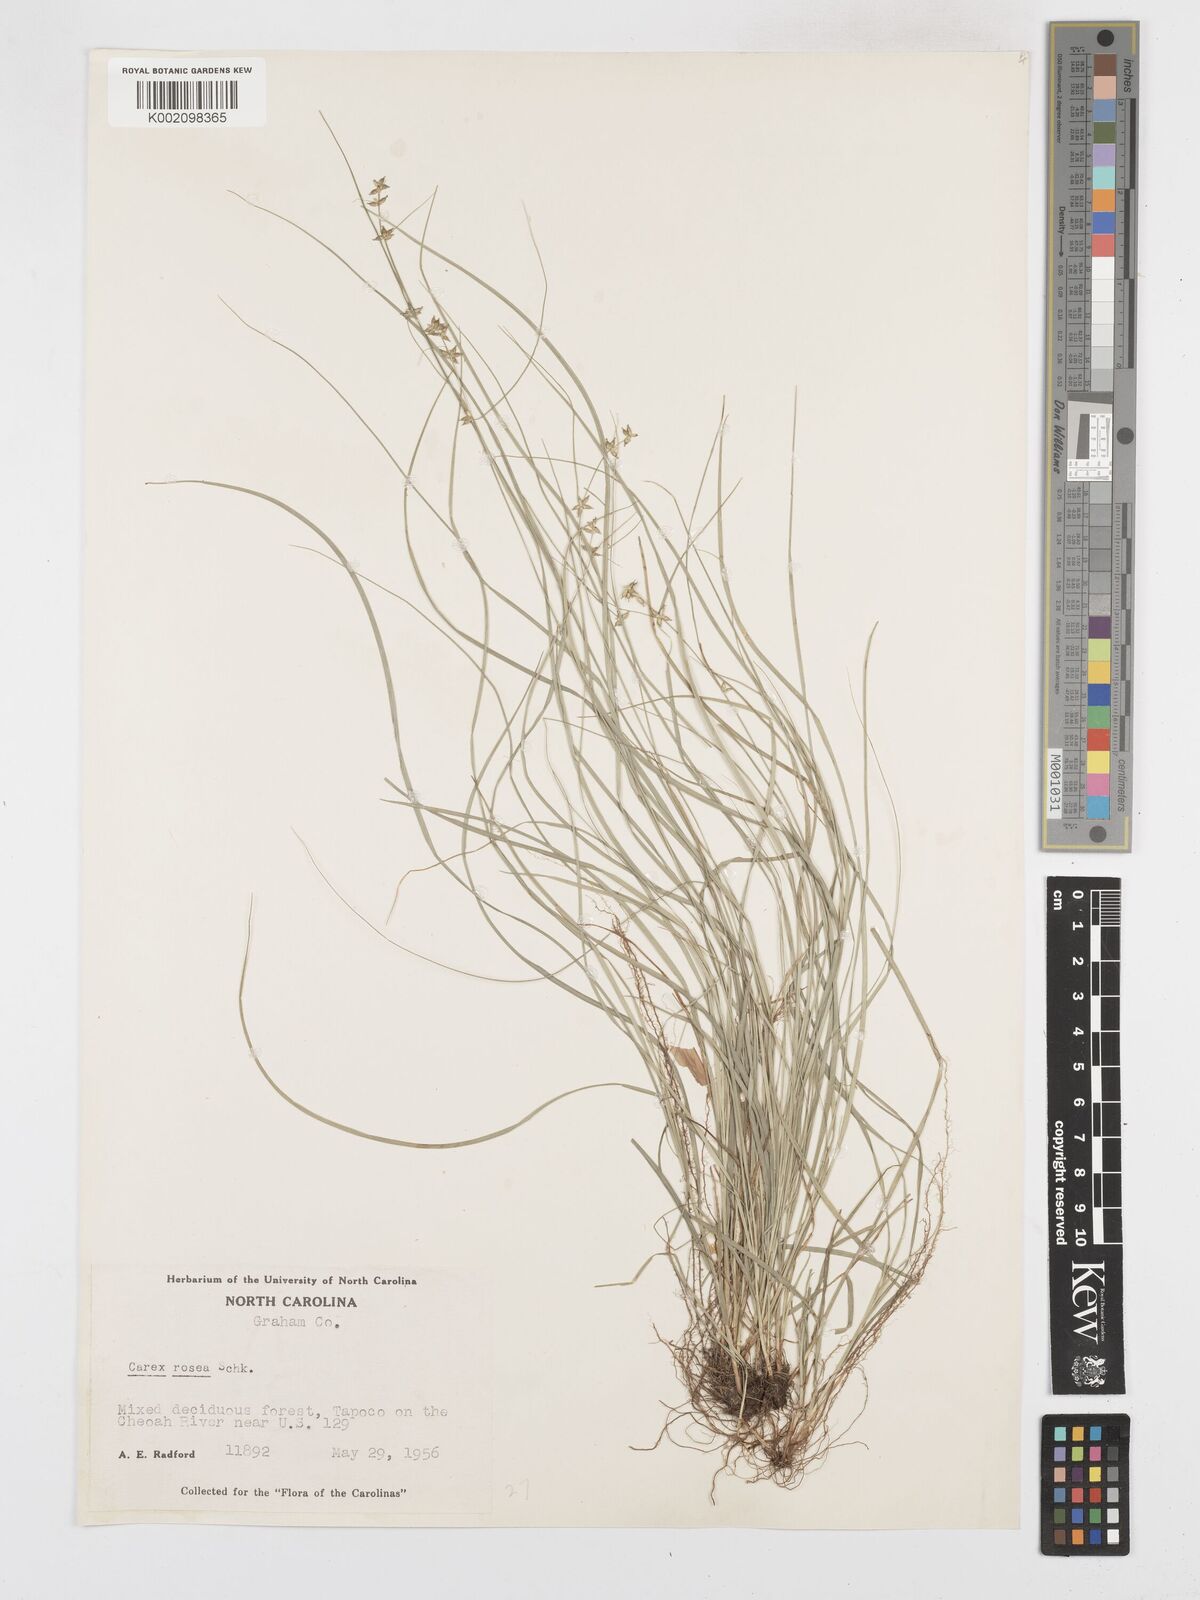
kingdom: Plantae
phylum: Tracheophyta
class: Liliopsida
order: Poales
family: Cyperaceae
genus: Carex
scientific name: Carex rosea
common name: Curly-styled wood sedge
